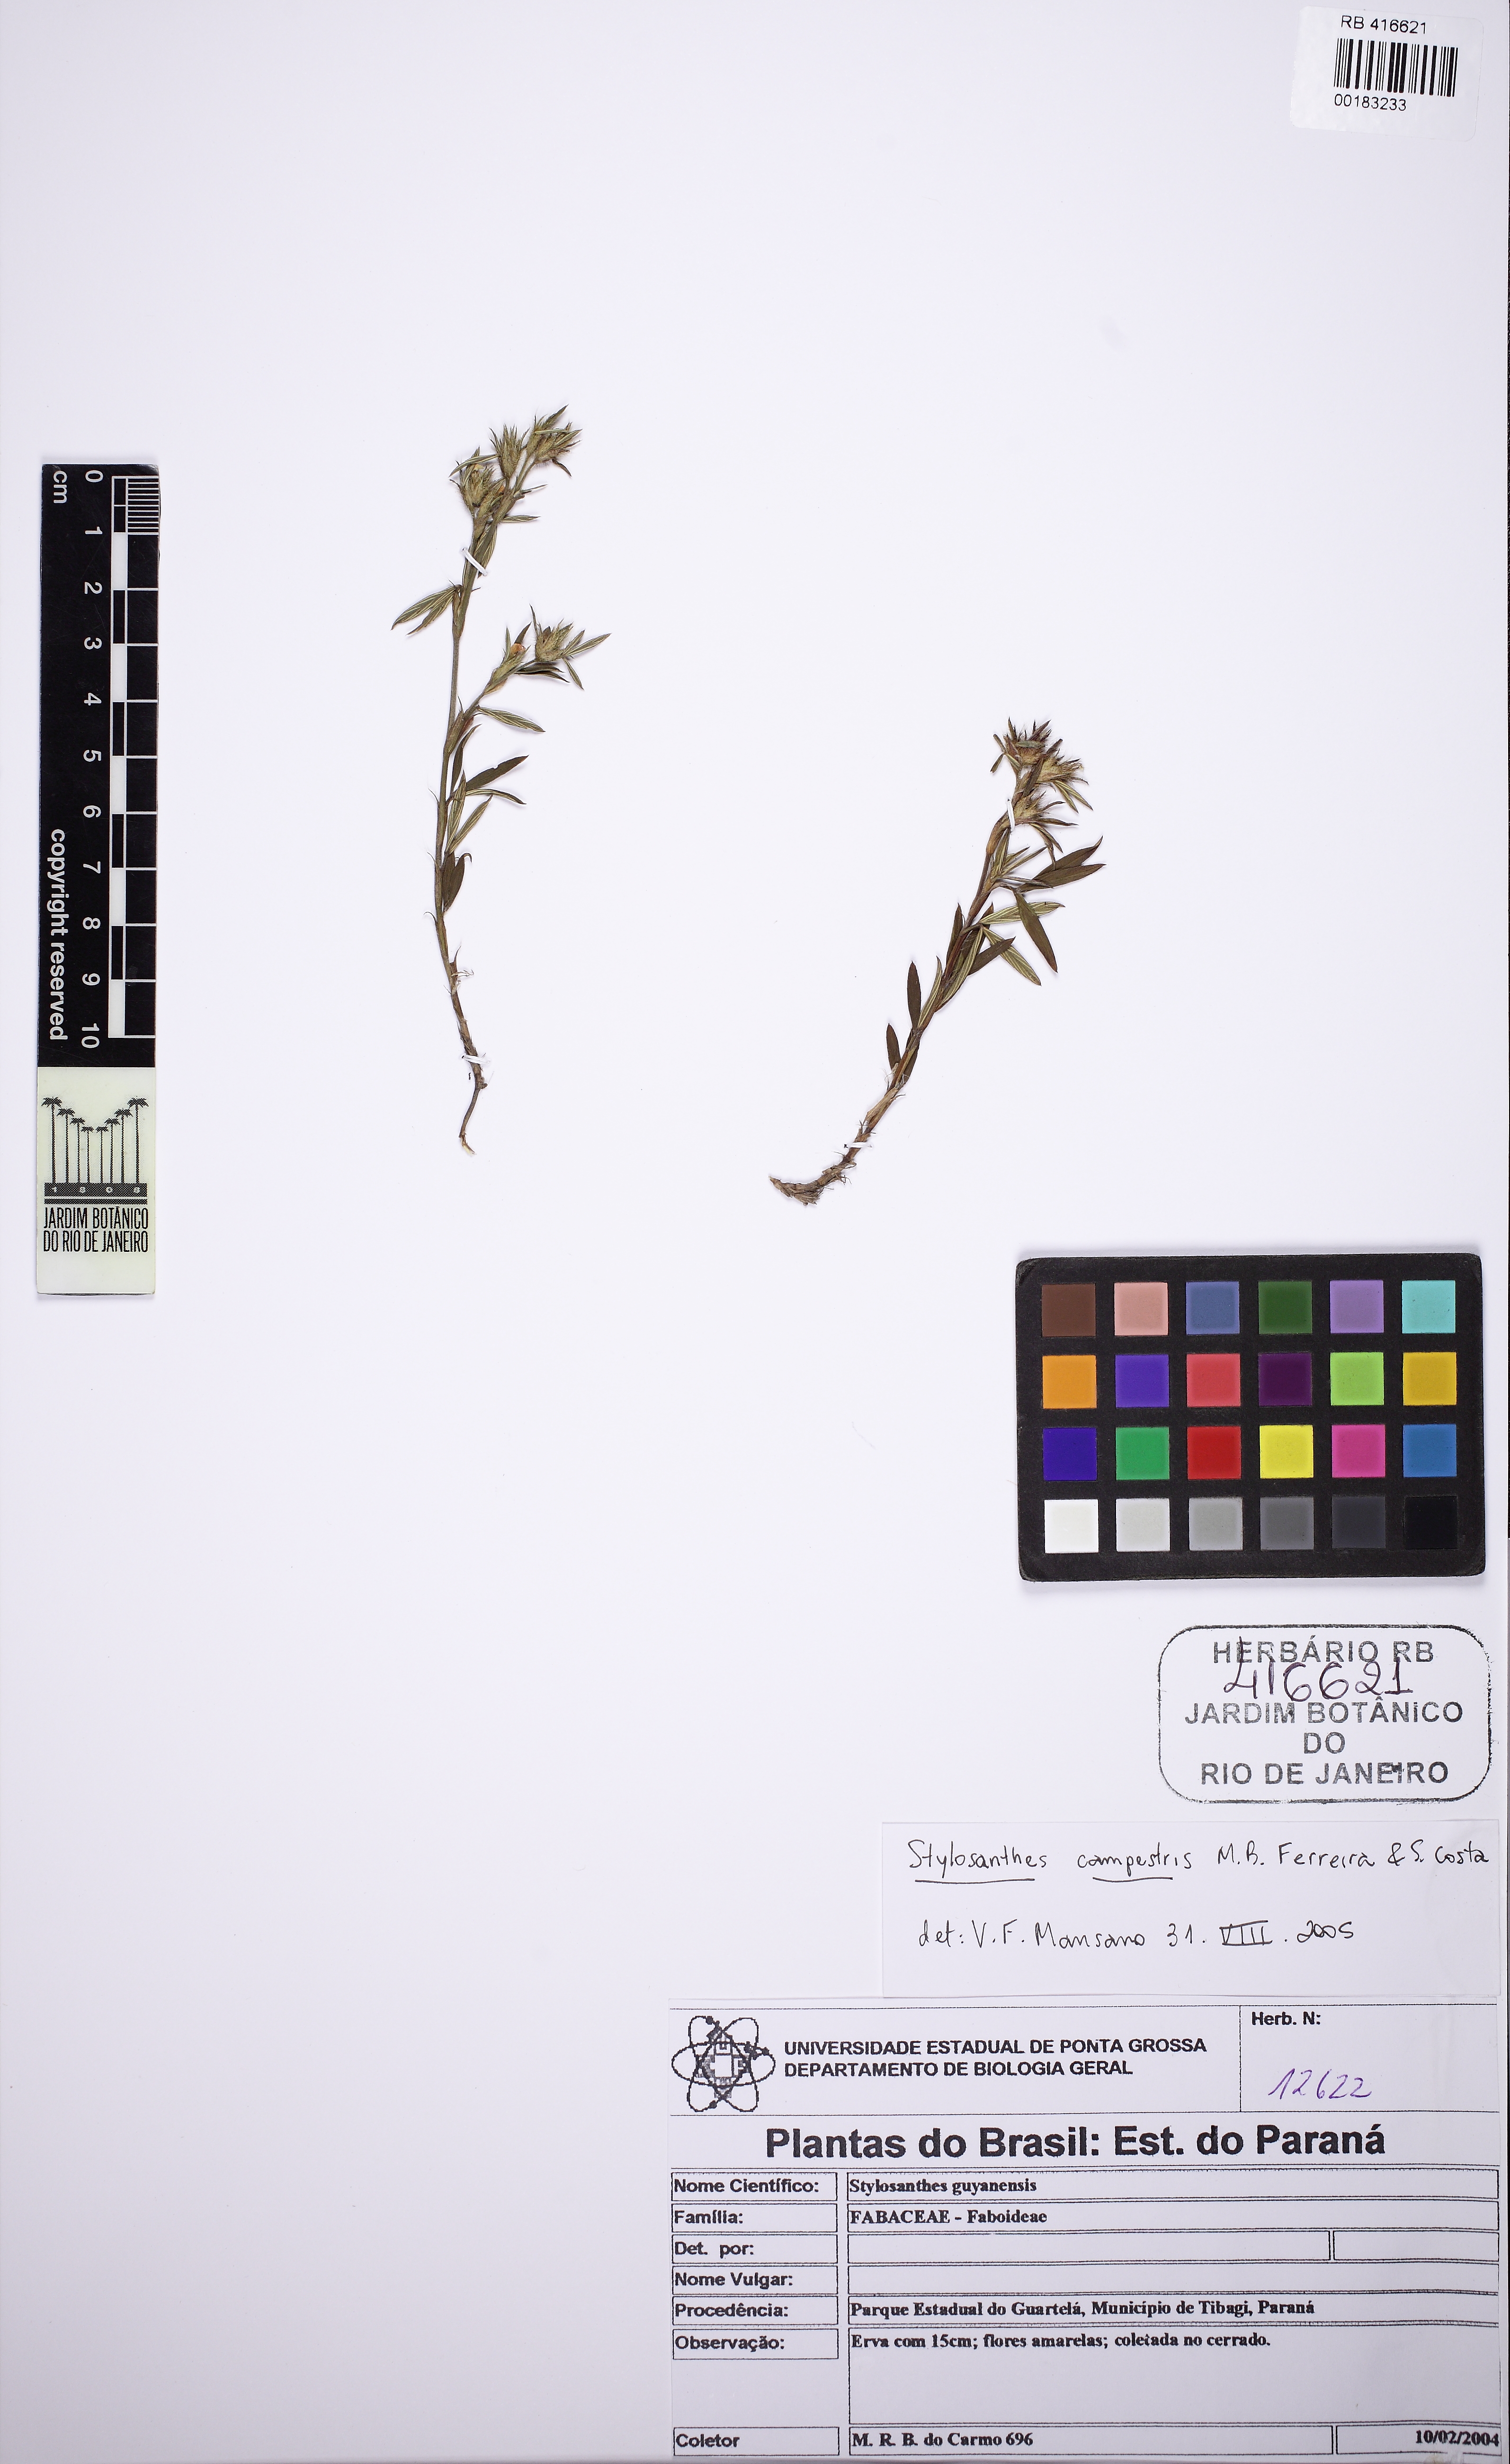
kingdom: Plantae
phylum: Tracheophyta
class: Magnoliopsida
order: Fabales
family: Fabaceae
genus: Stylosanthes
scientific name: Stylosanthes campestris
